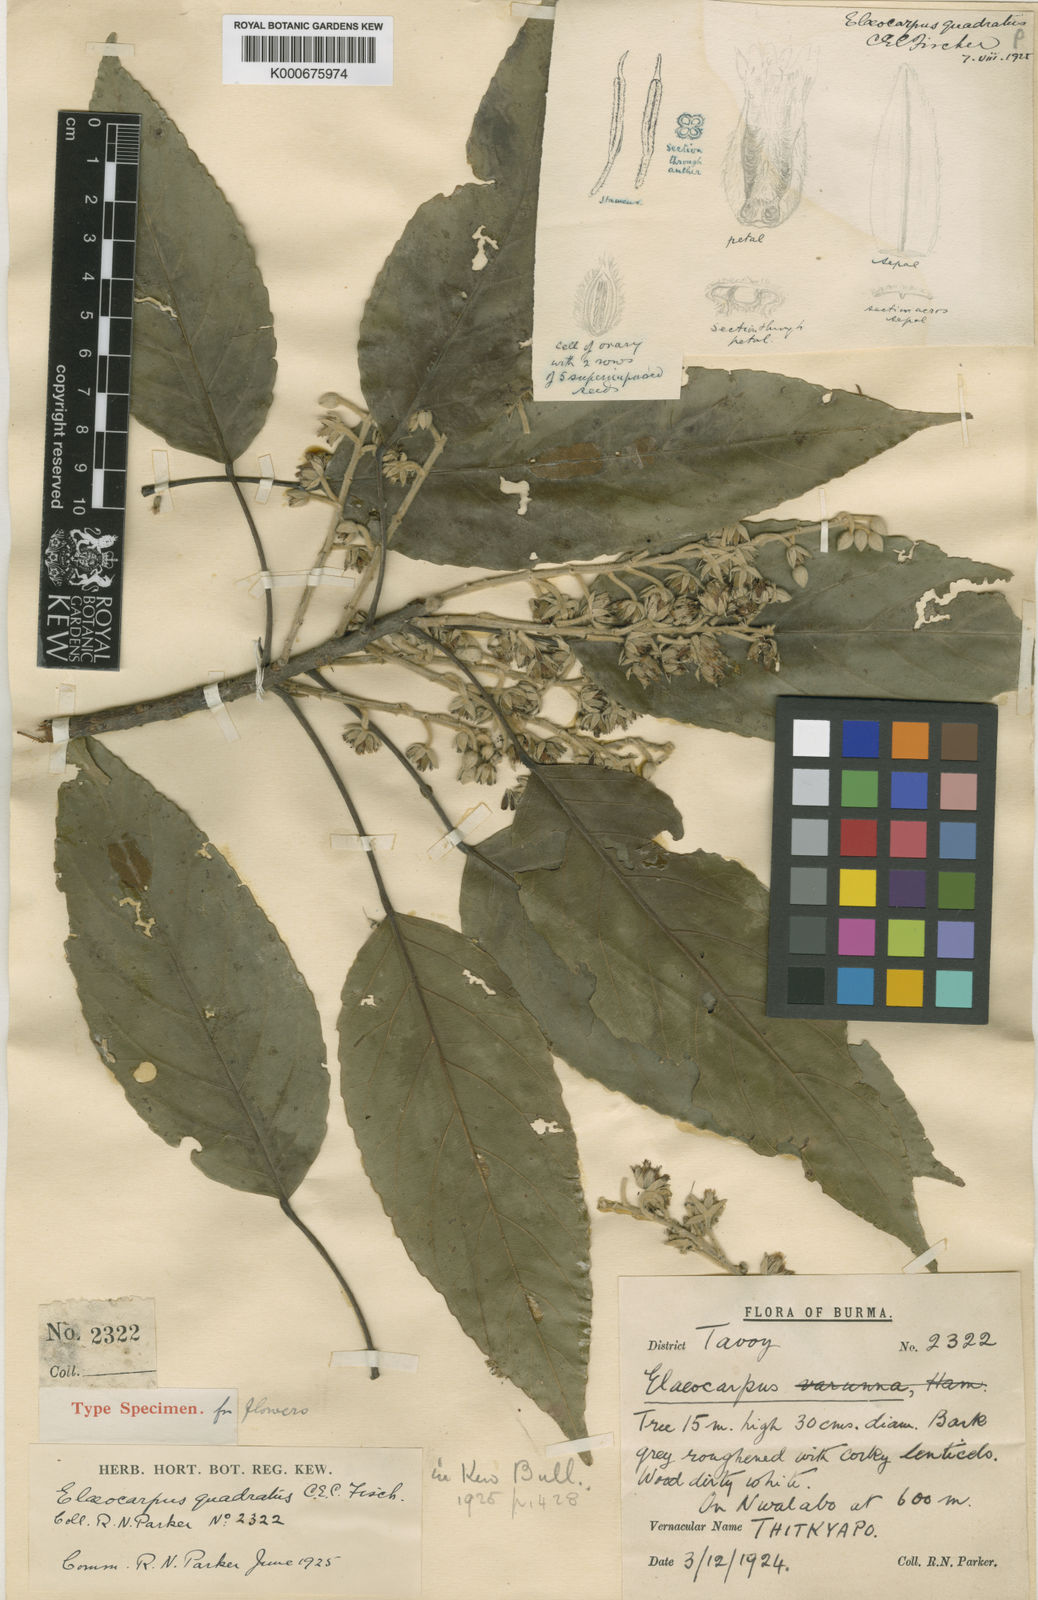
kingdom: Plantae
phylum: Tracheophyta
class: Magnoliopsida
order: Oxalidales
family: Elaeocarpaceae
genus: Elaeocarpus
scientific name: Elaeocarpus quadratus
